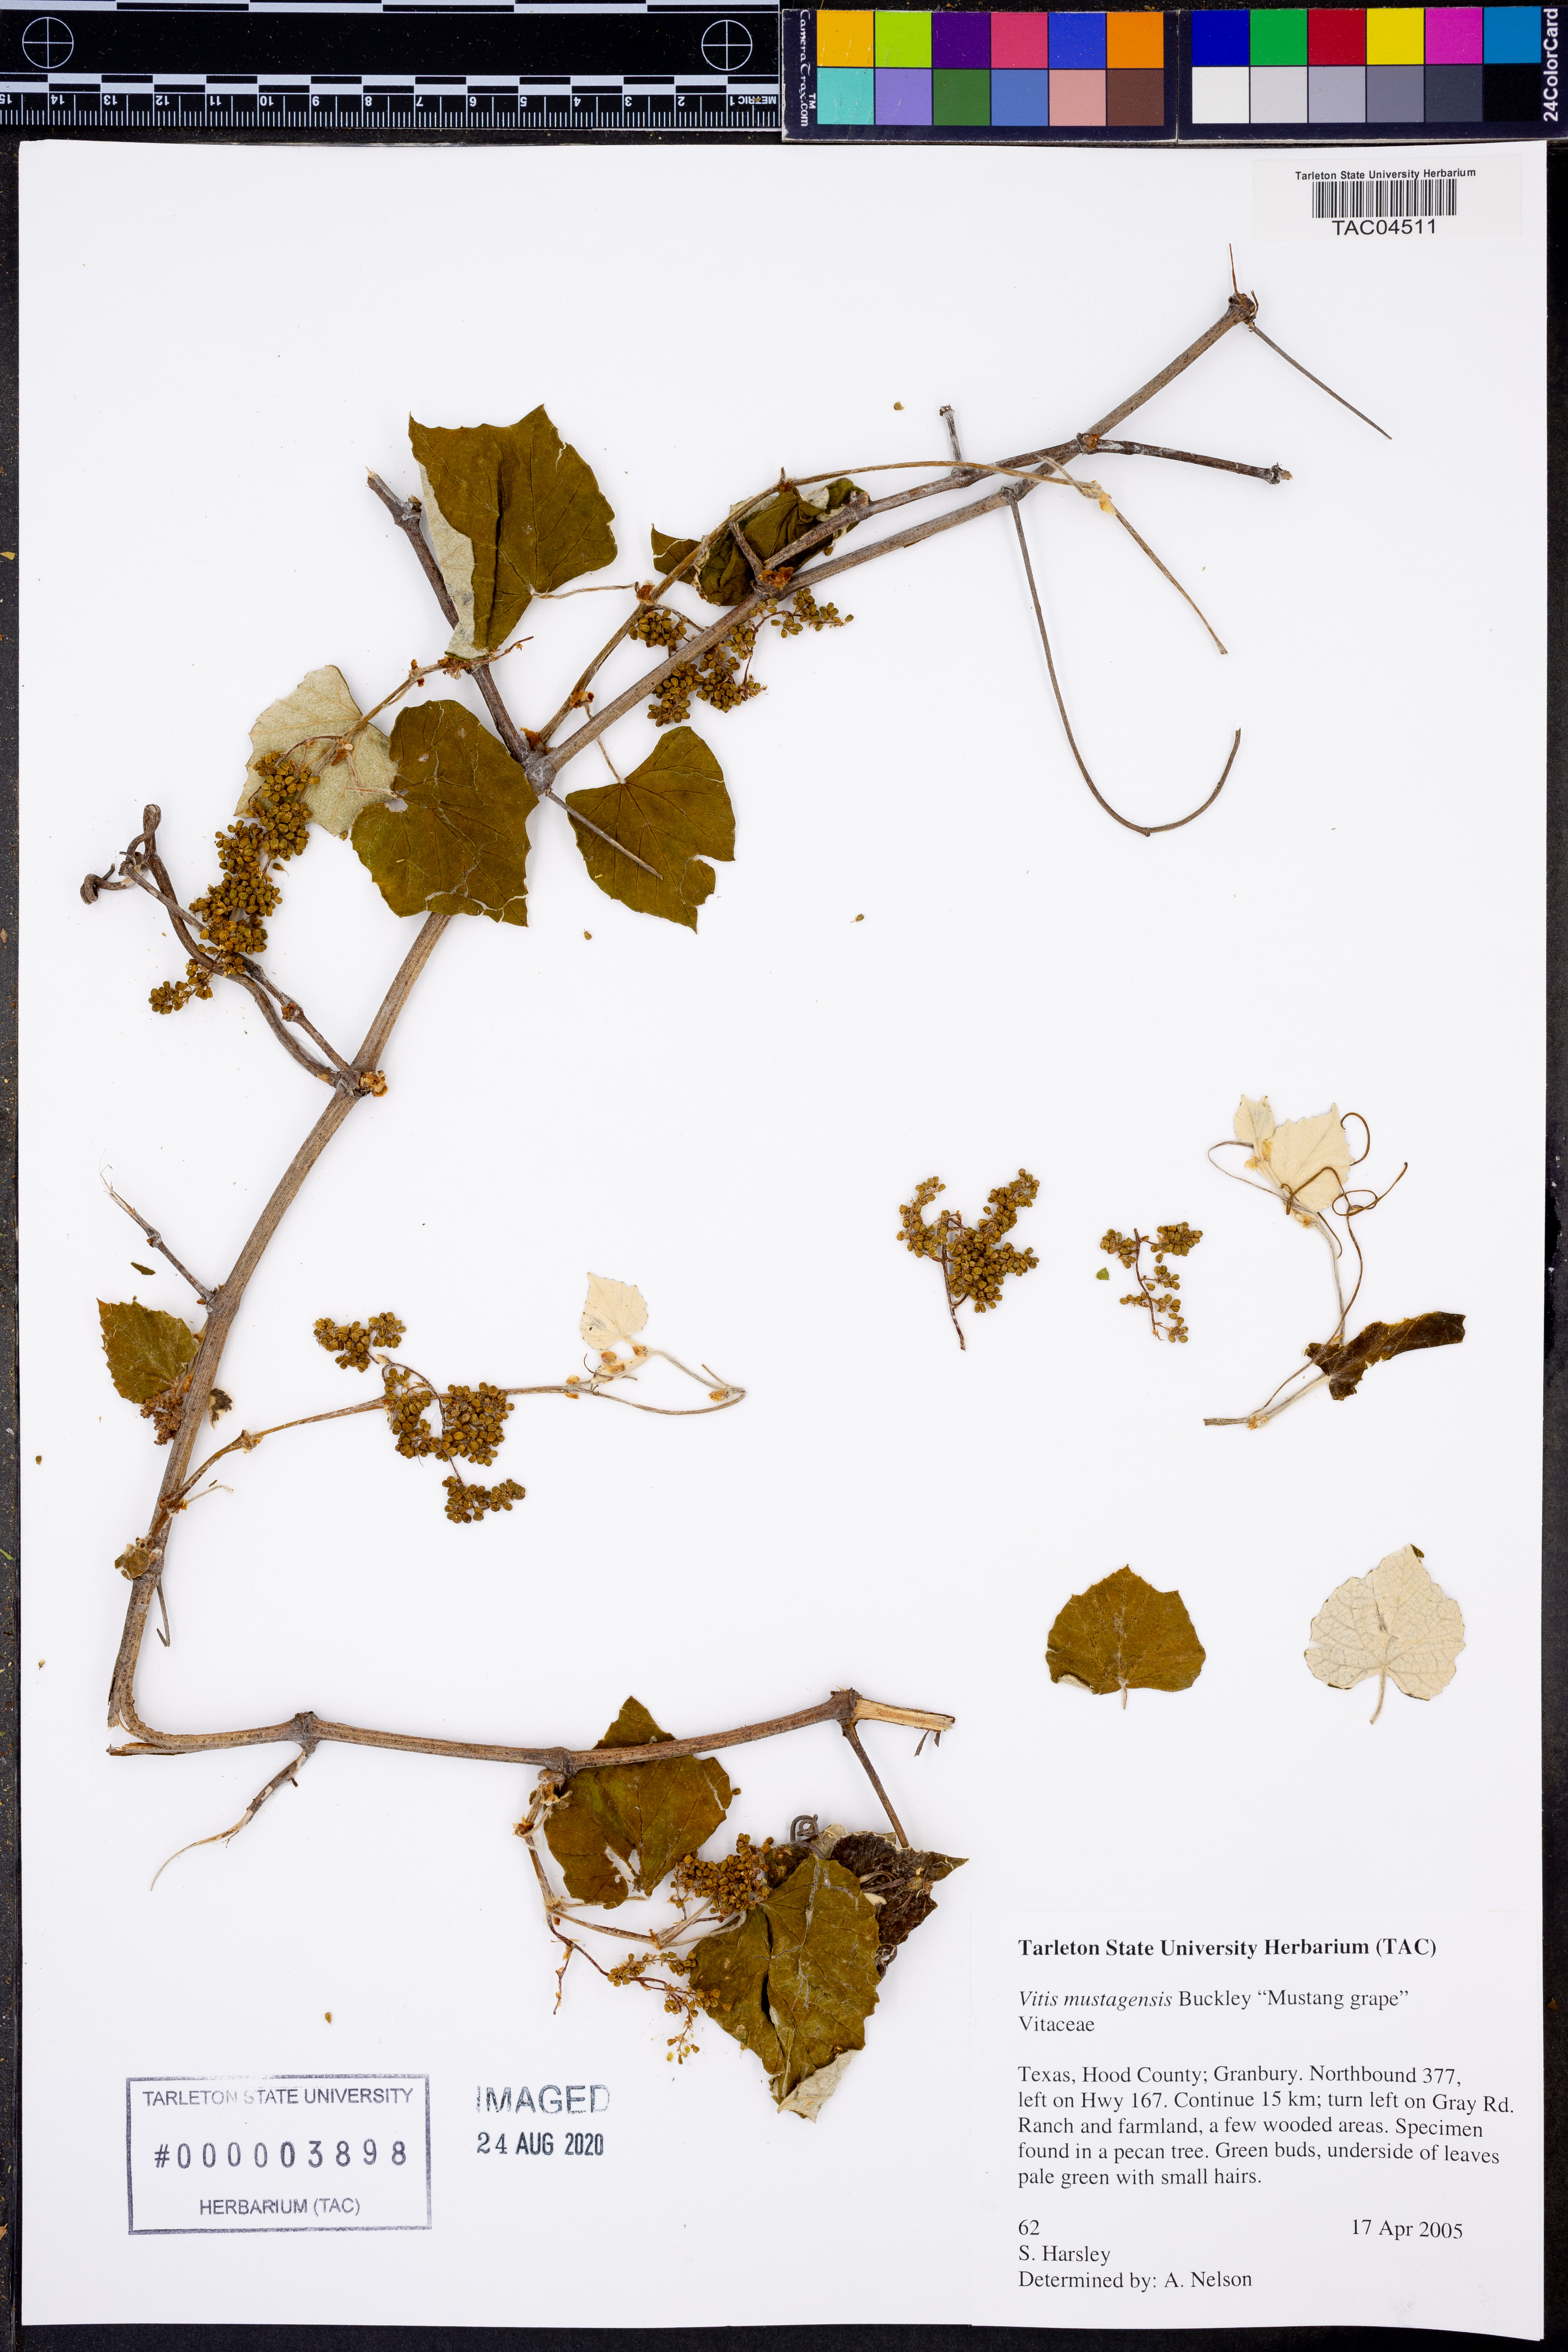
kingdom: Plantae
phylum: Tracheophyta
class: Magnoliopsida
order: Vitales
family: Vitaceae
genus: Vitis
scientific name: Vitis mustangensis
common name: Mustang grape
